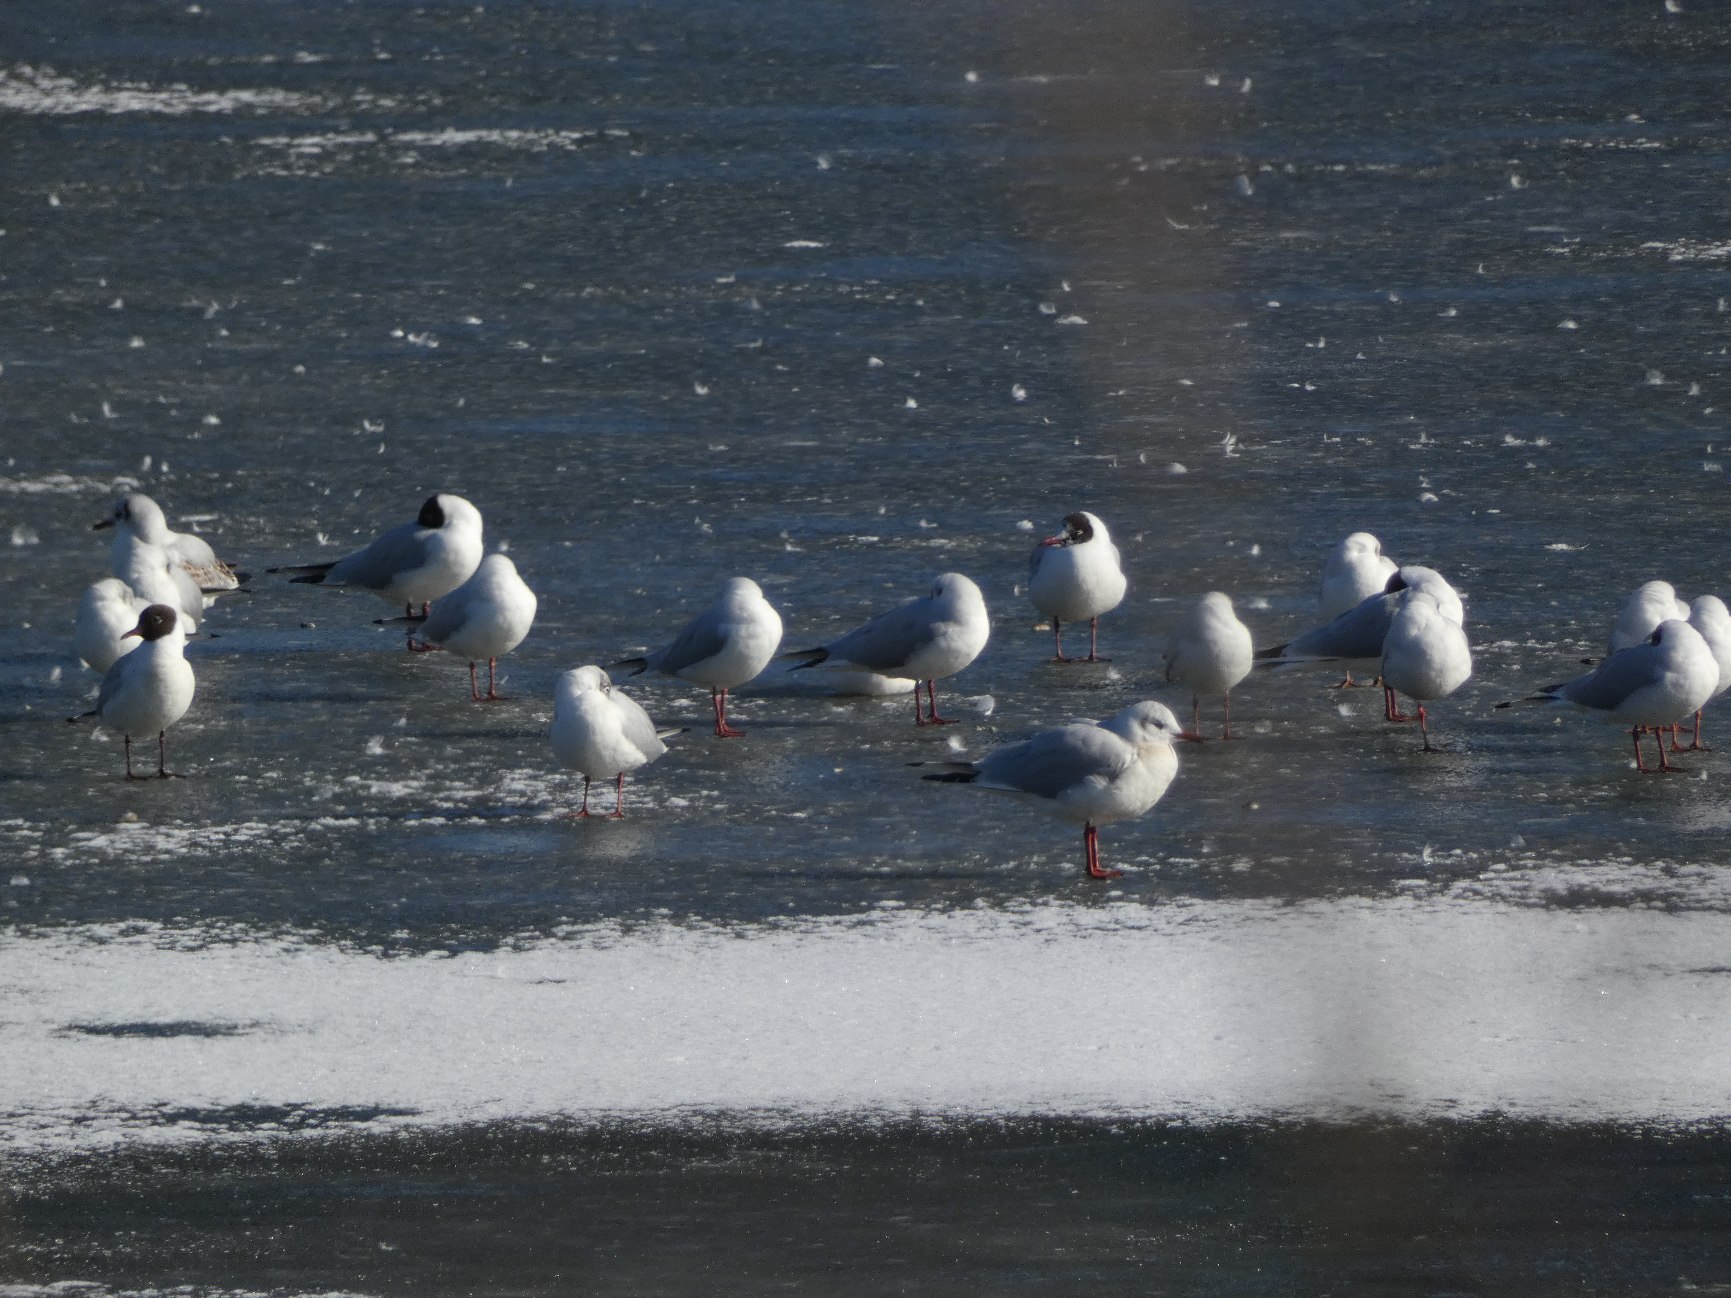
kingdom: Animalia
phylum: Chordata
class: Aves
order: Charadriiformes
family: Laridae
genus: Chroicocephalus
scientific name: Chroicocephalus ridibundus
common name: Hættemåge
